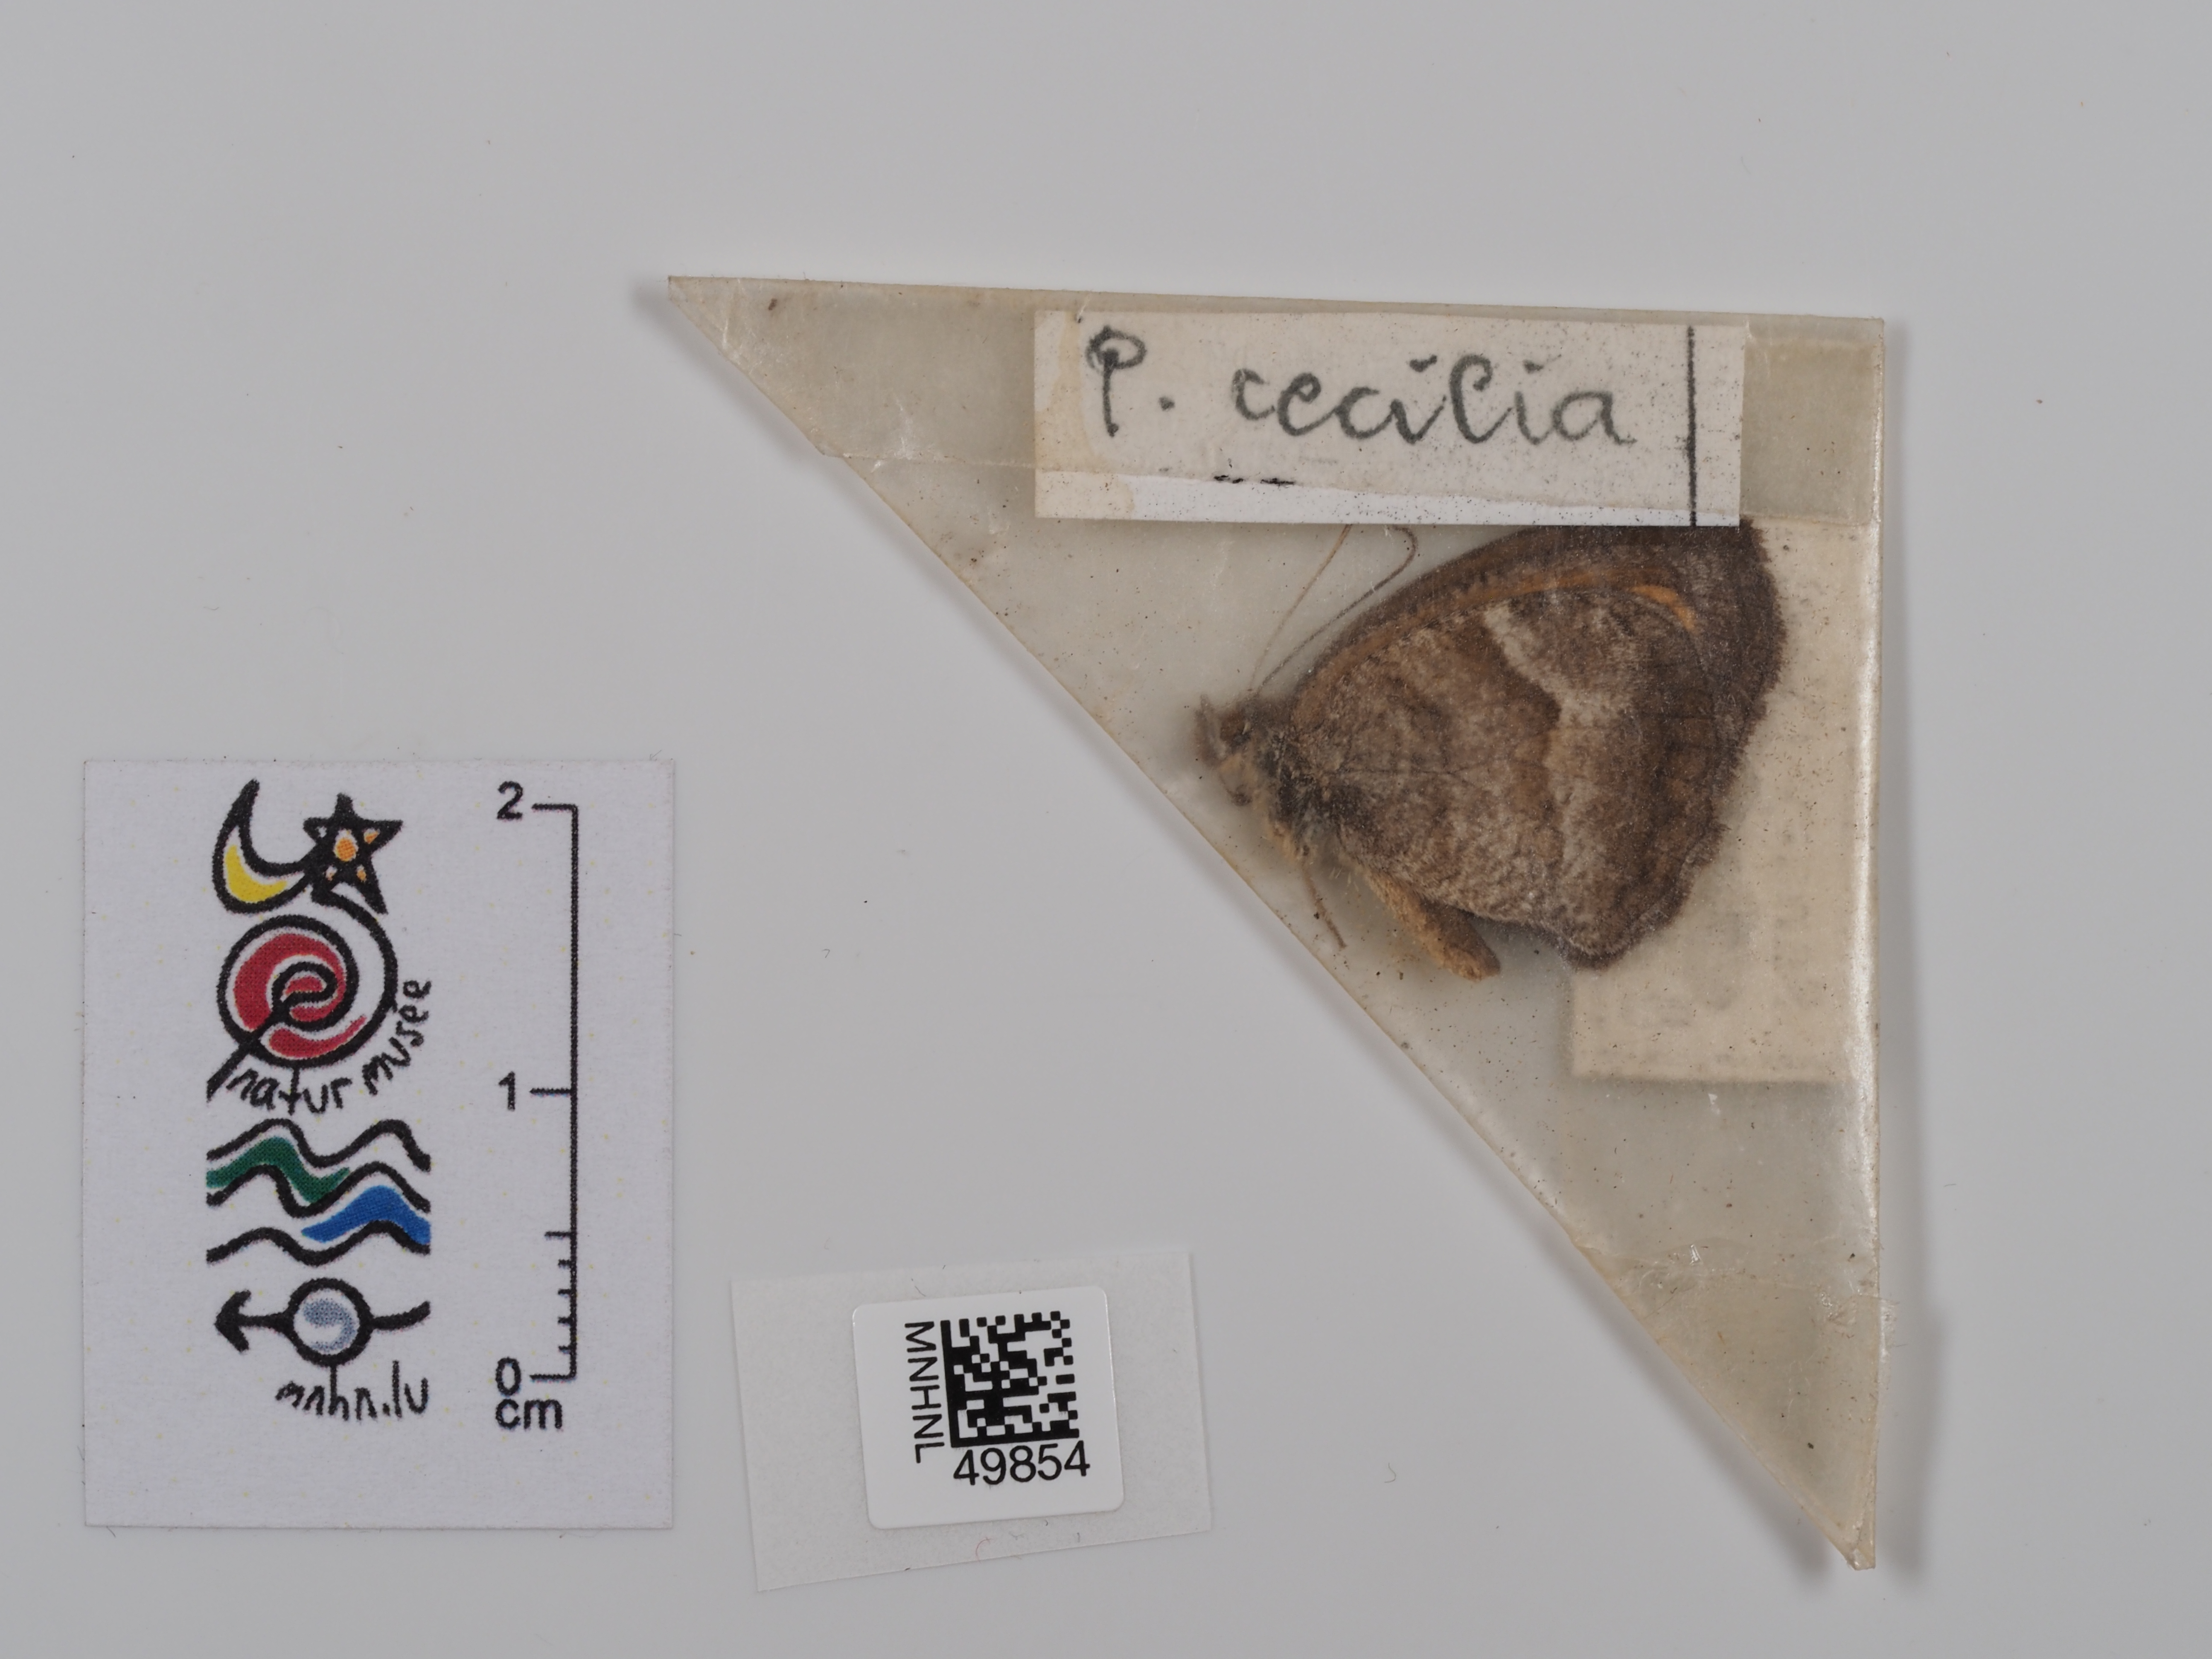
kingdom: Animalia
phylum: Arthropoda
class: Insecta
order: Lepidoptera
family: Nymphalidae
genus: Pyronia
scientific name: Pyronia cecilia
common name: Southern gatekeeper
